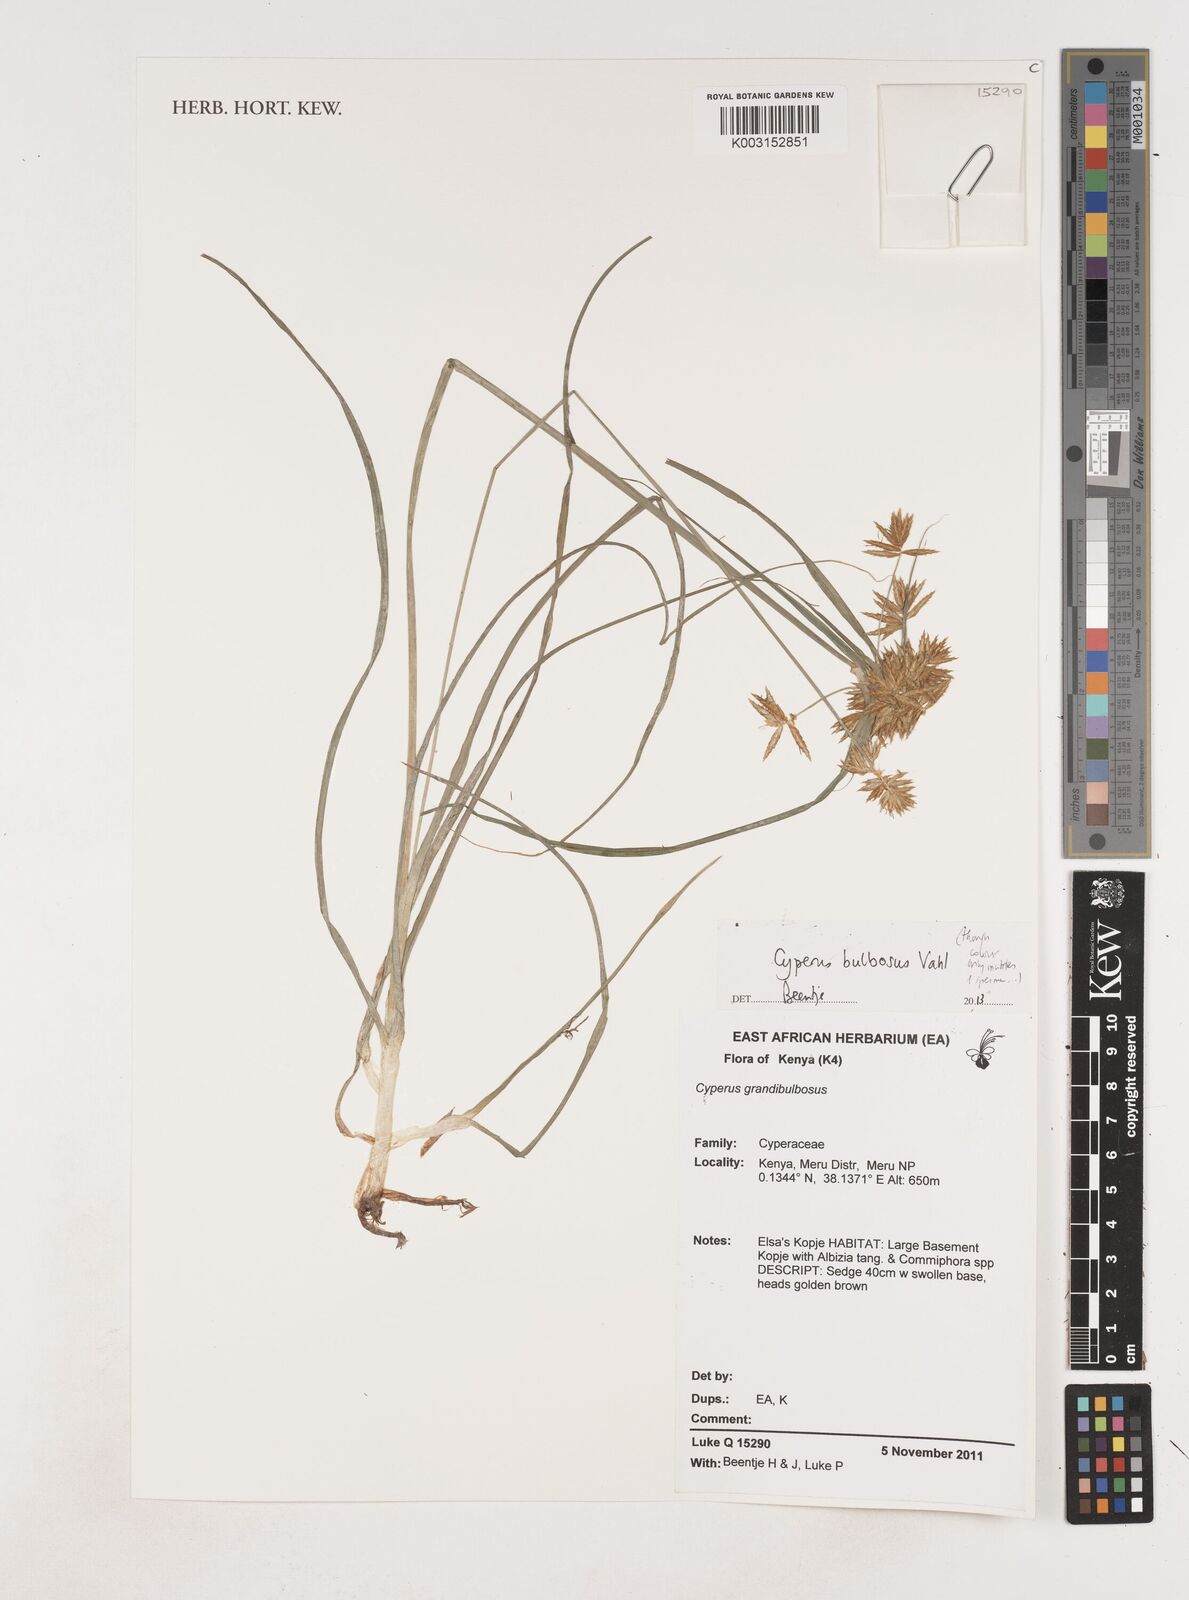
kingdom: Plantae
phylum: Tracheophyta
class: Liliopsida
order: Poales
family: Cyperaceae
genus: Cyperus
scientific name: Cyperus bulbosus
